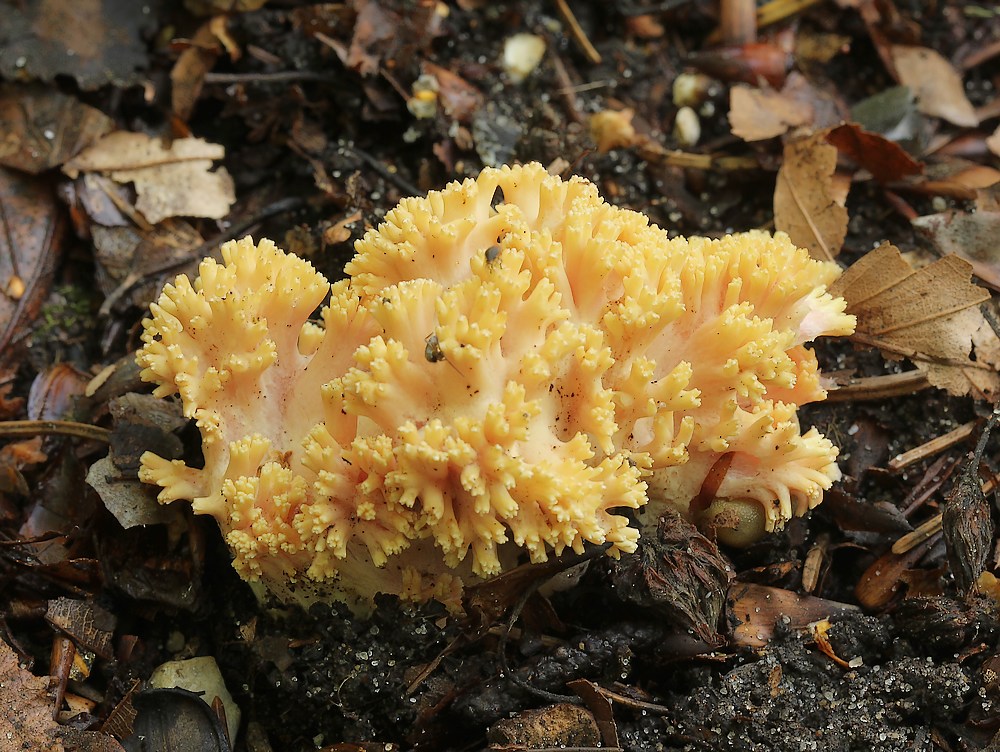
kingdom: Fungi
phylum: Basidiomycota
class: Agaricomycetes
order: Gomphales
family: Gomphaceae
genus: Ramaria
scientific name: Ramaria krieglsteineri
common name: smalsporet koralsvamp
